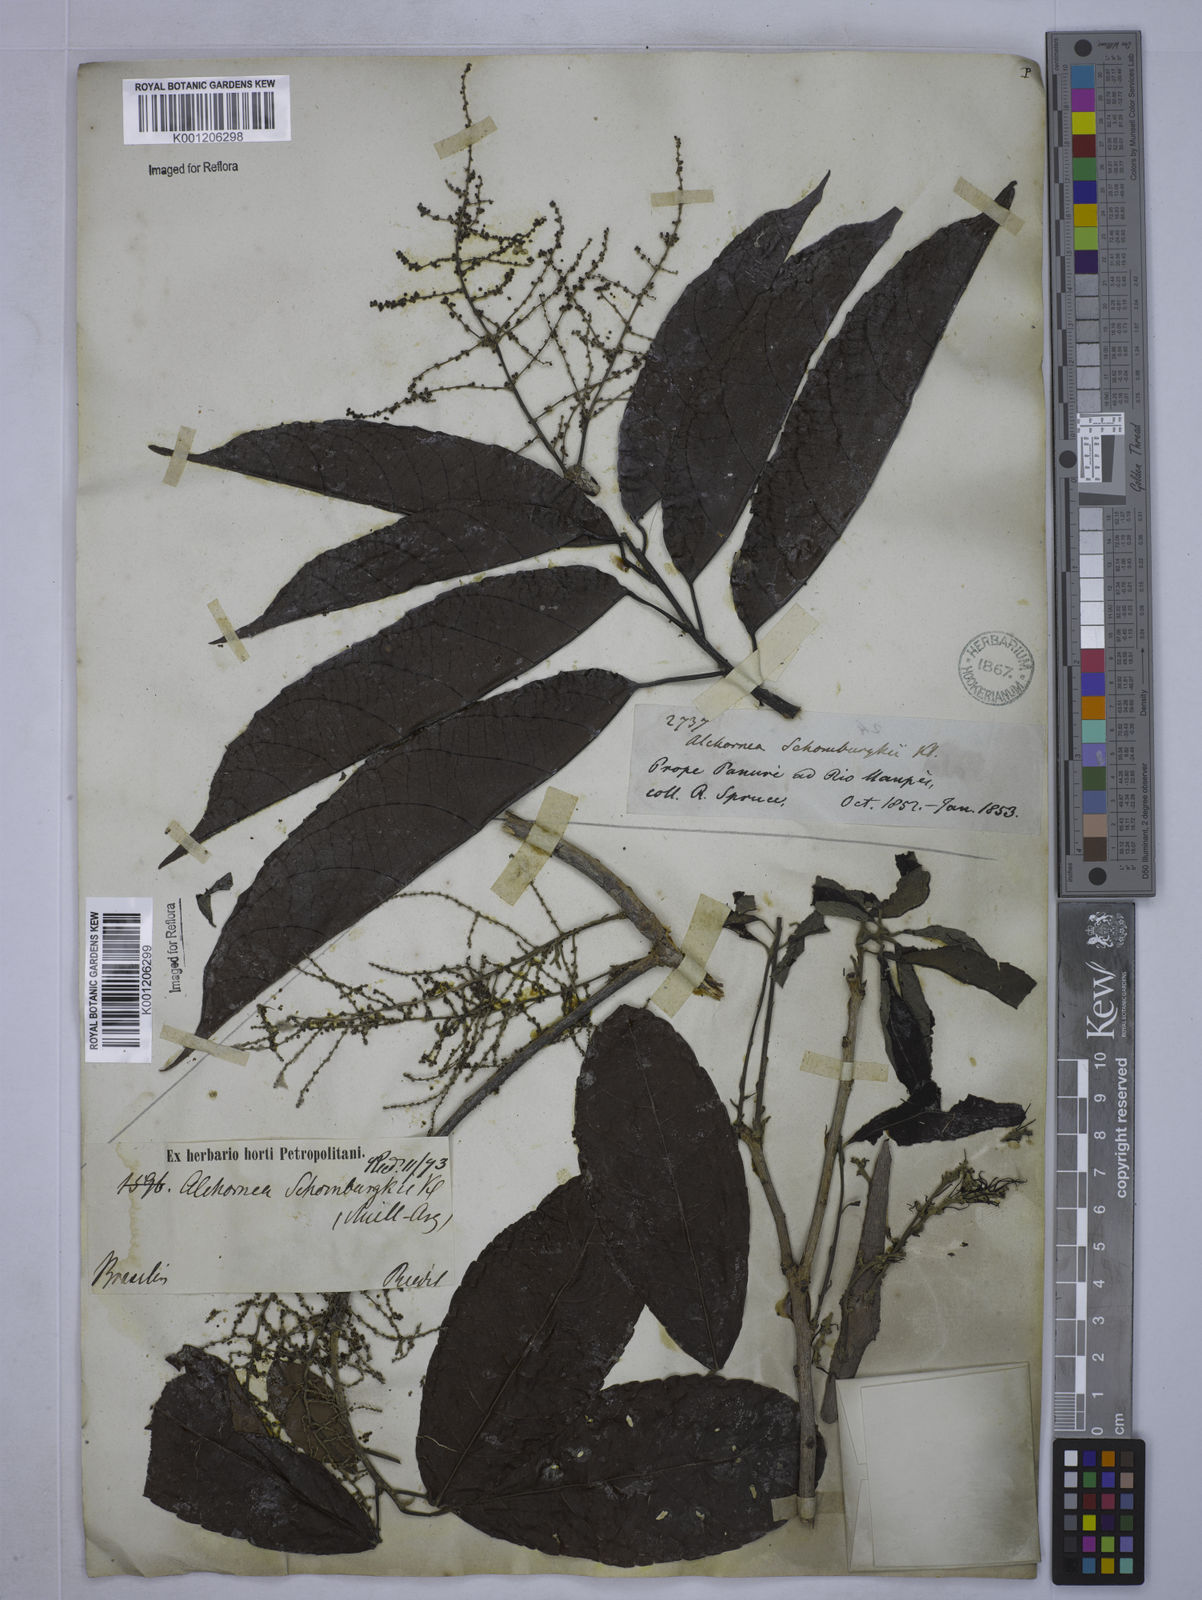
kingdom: Plantae
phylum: Tracheophyta
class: Magnoliopsida
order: Malpighiales
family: Euphorbiaceae
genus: Alchornea
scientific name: Alchornea discolor
